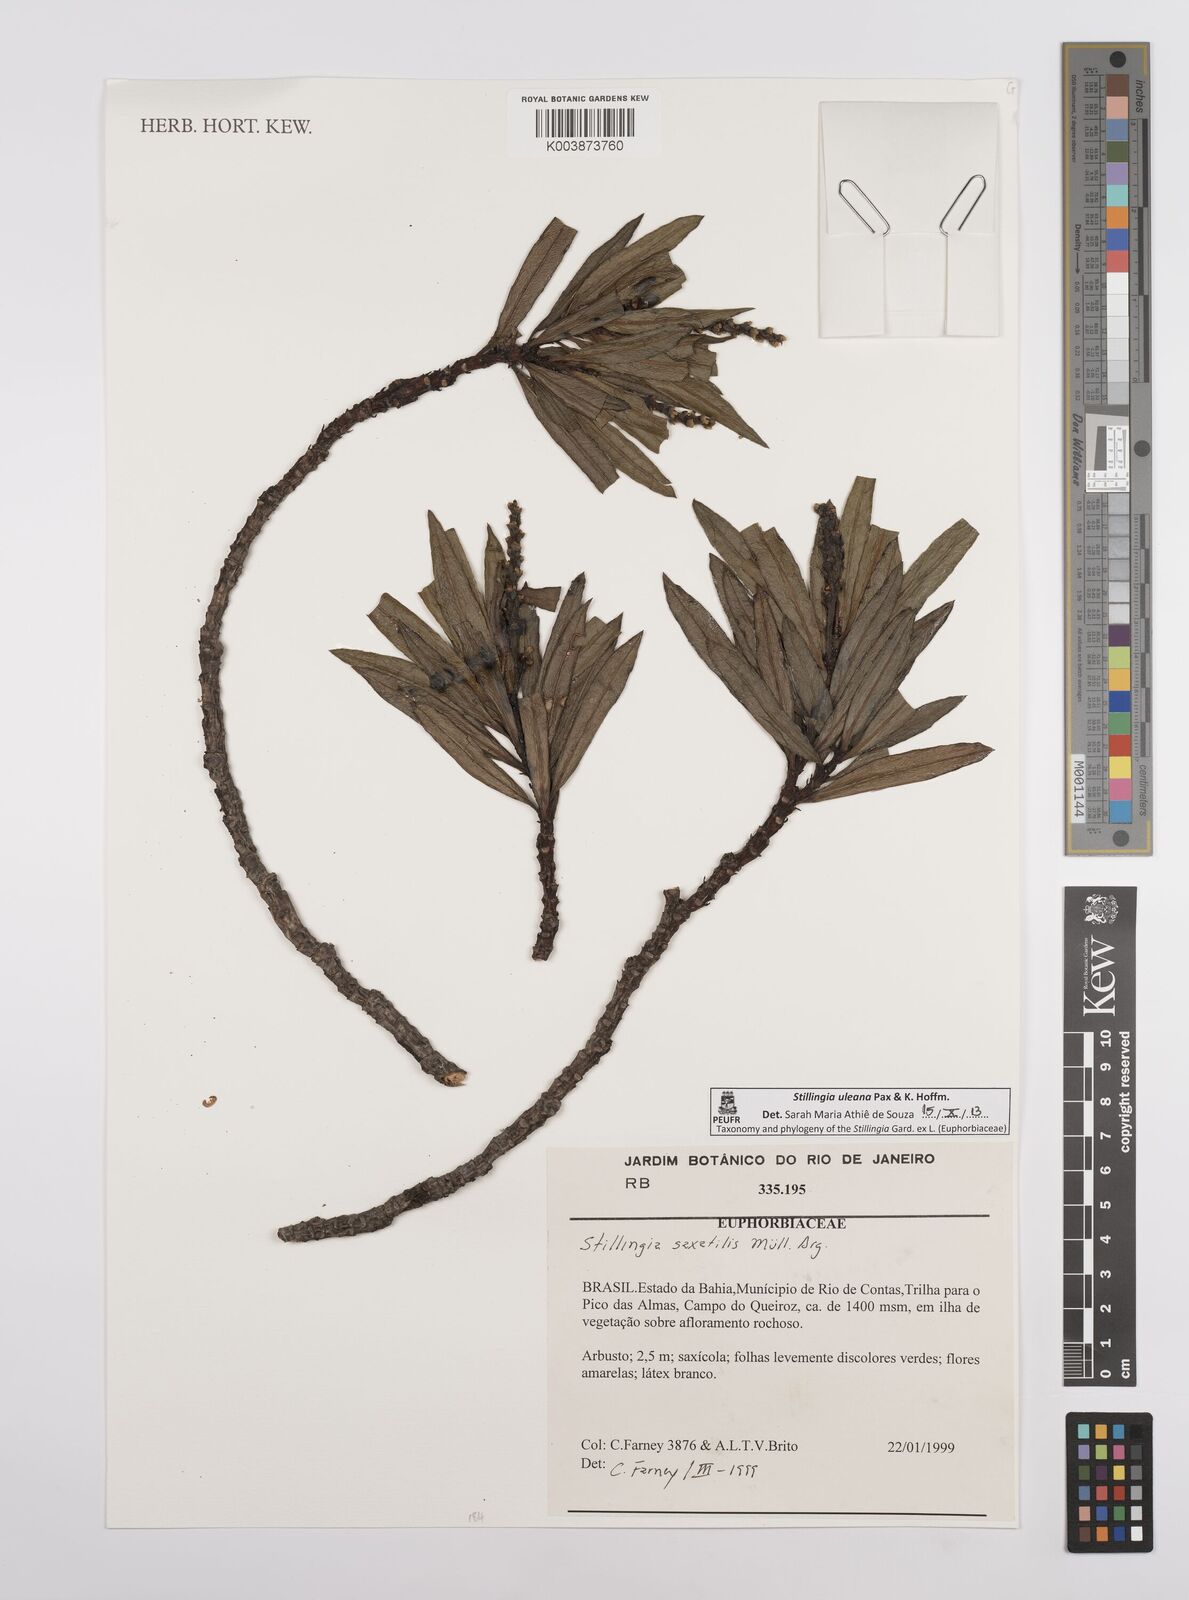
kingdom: Plantae
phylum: Tracheophyta
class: Magnoliopsida
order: Malpighiales
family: Euphorbiaceae
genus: Stillingia
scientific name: Stillingia uleana
